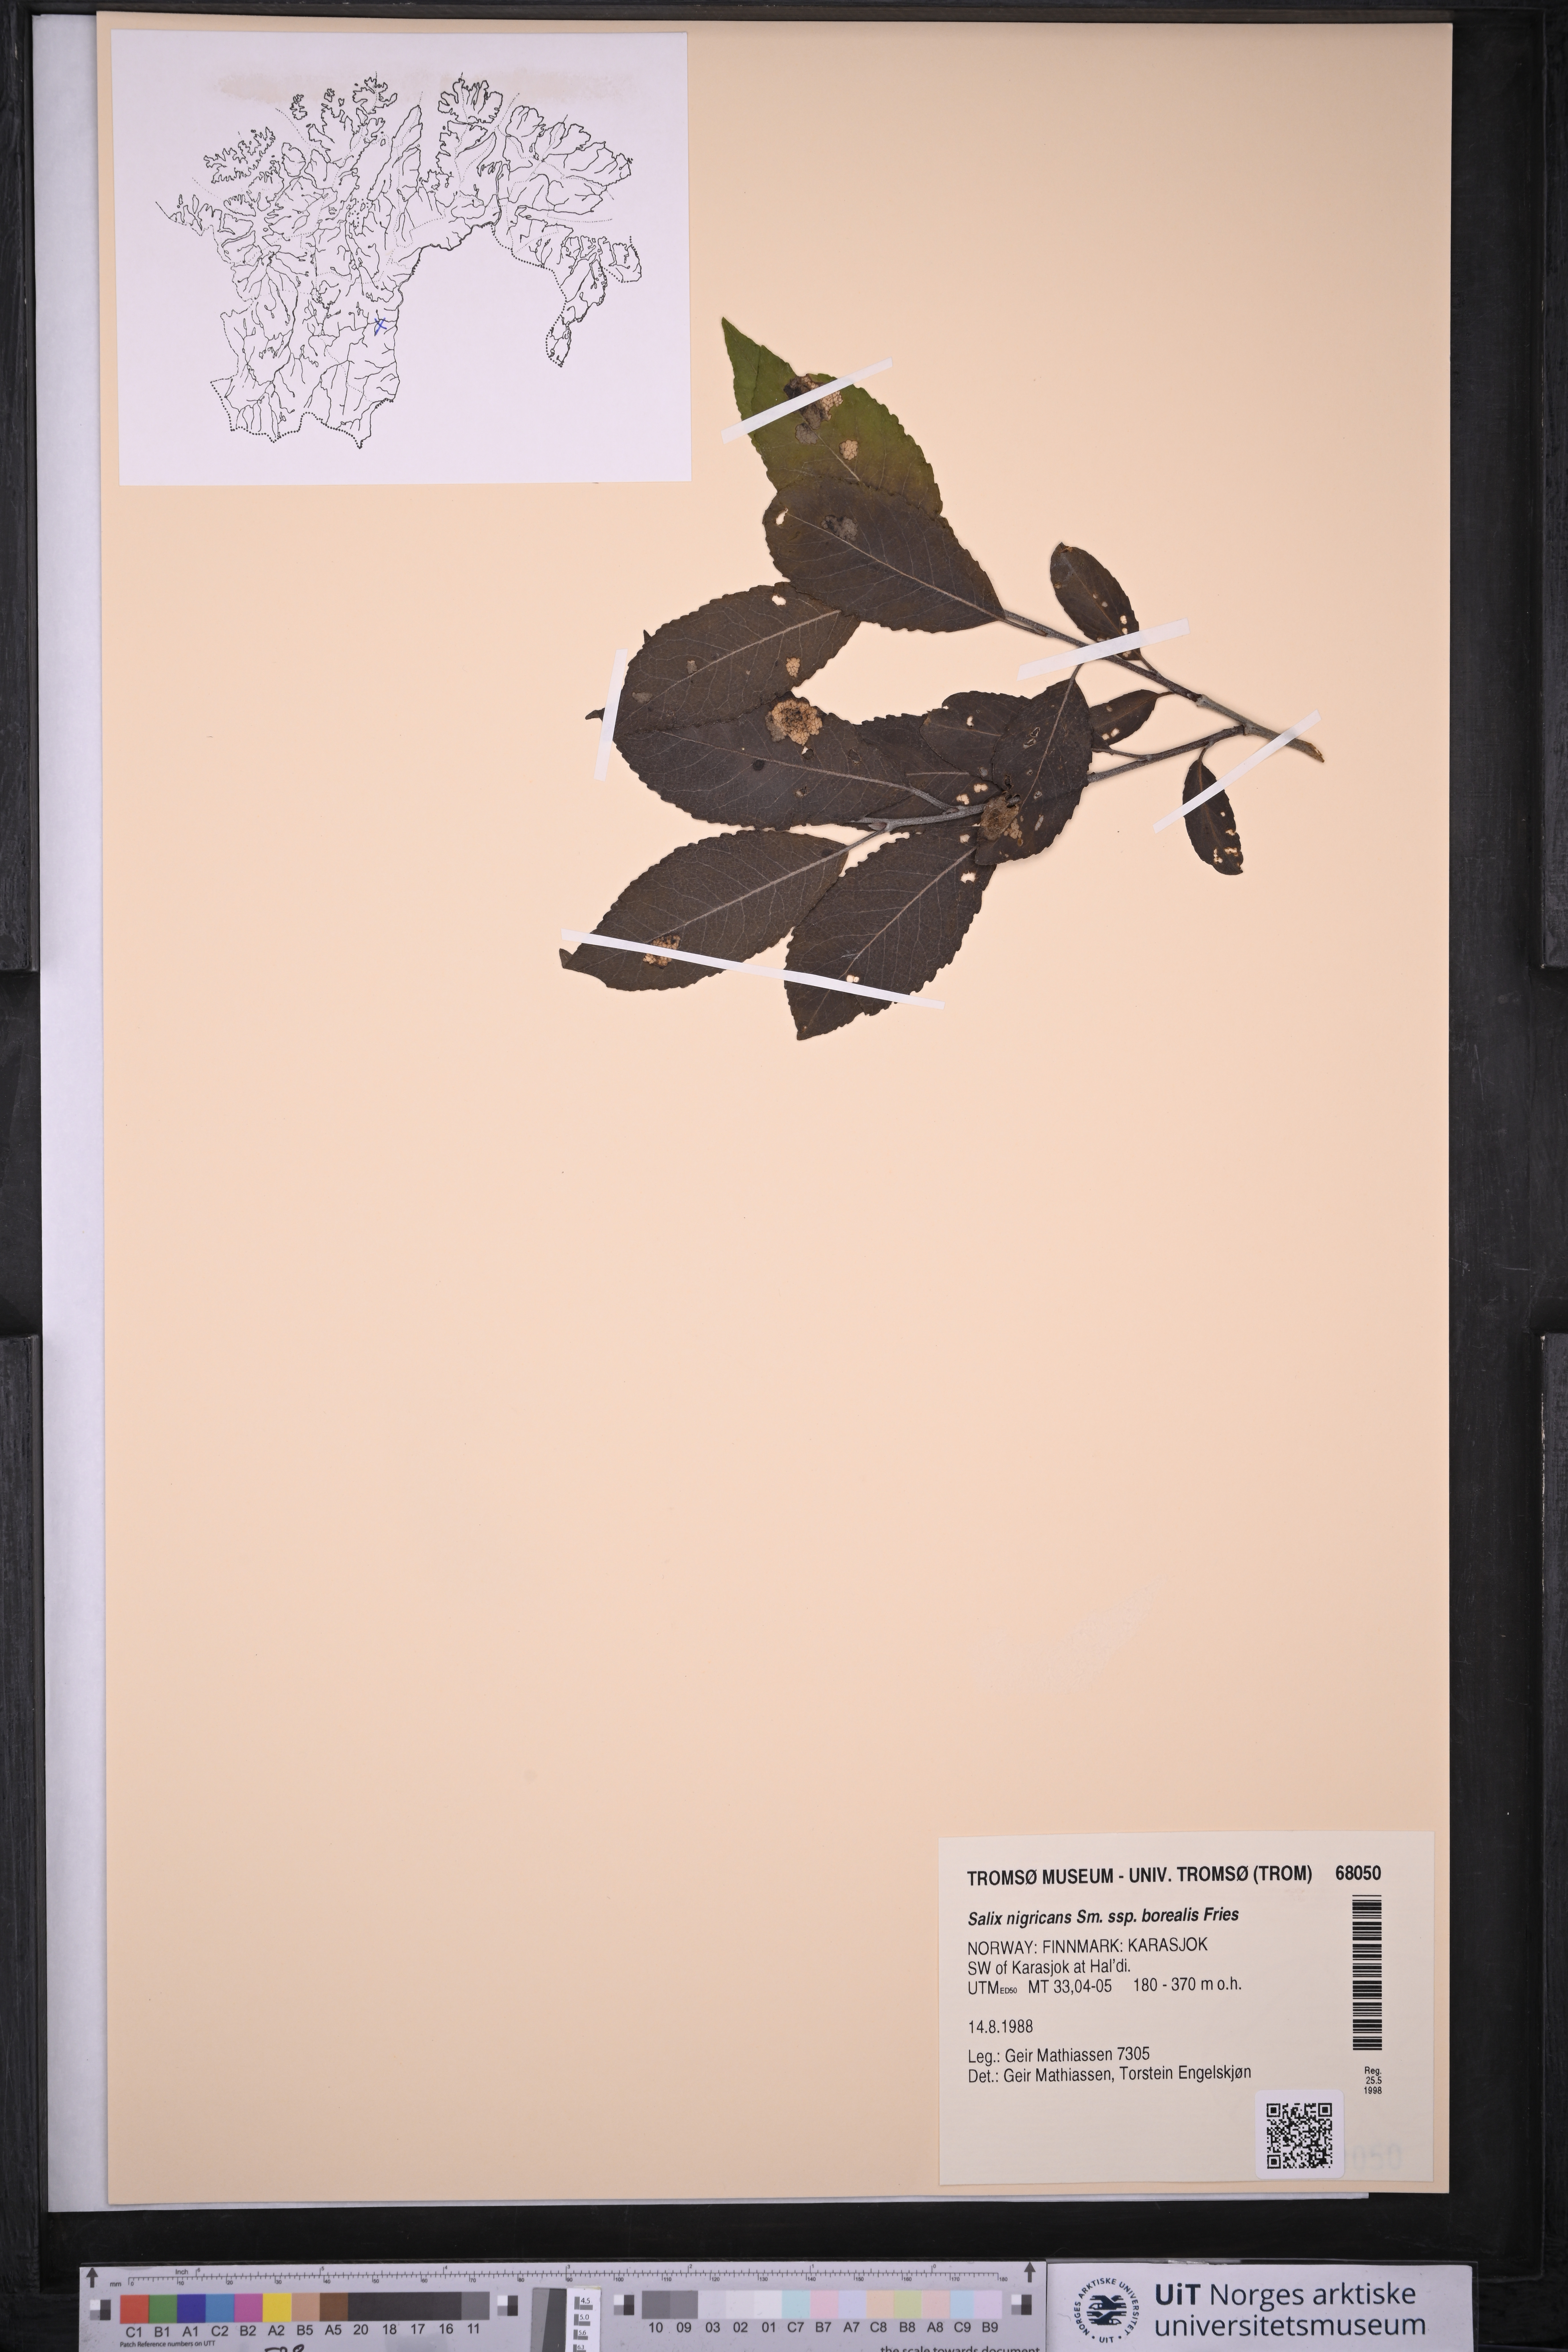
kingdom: Plantae
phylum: Tracheophyta
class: Magnoliopsida
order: Malpighiales
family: Salicaceae
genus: Salix
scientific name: Salix myrsinifolia
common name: Dark-leaved willow
